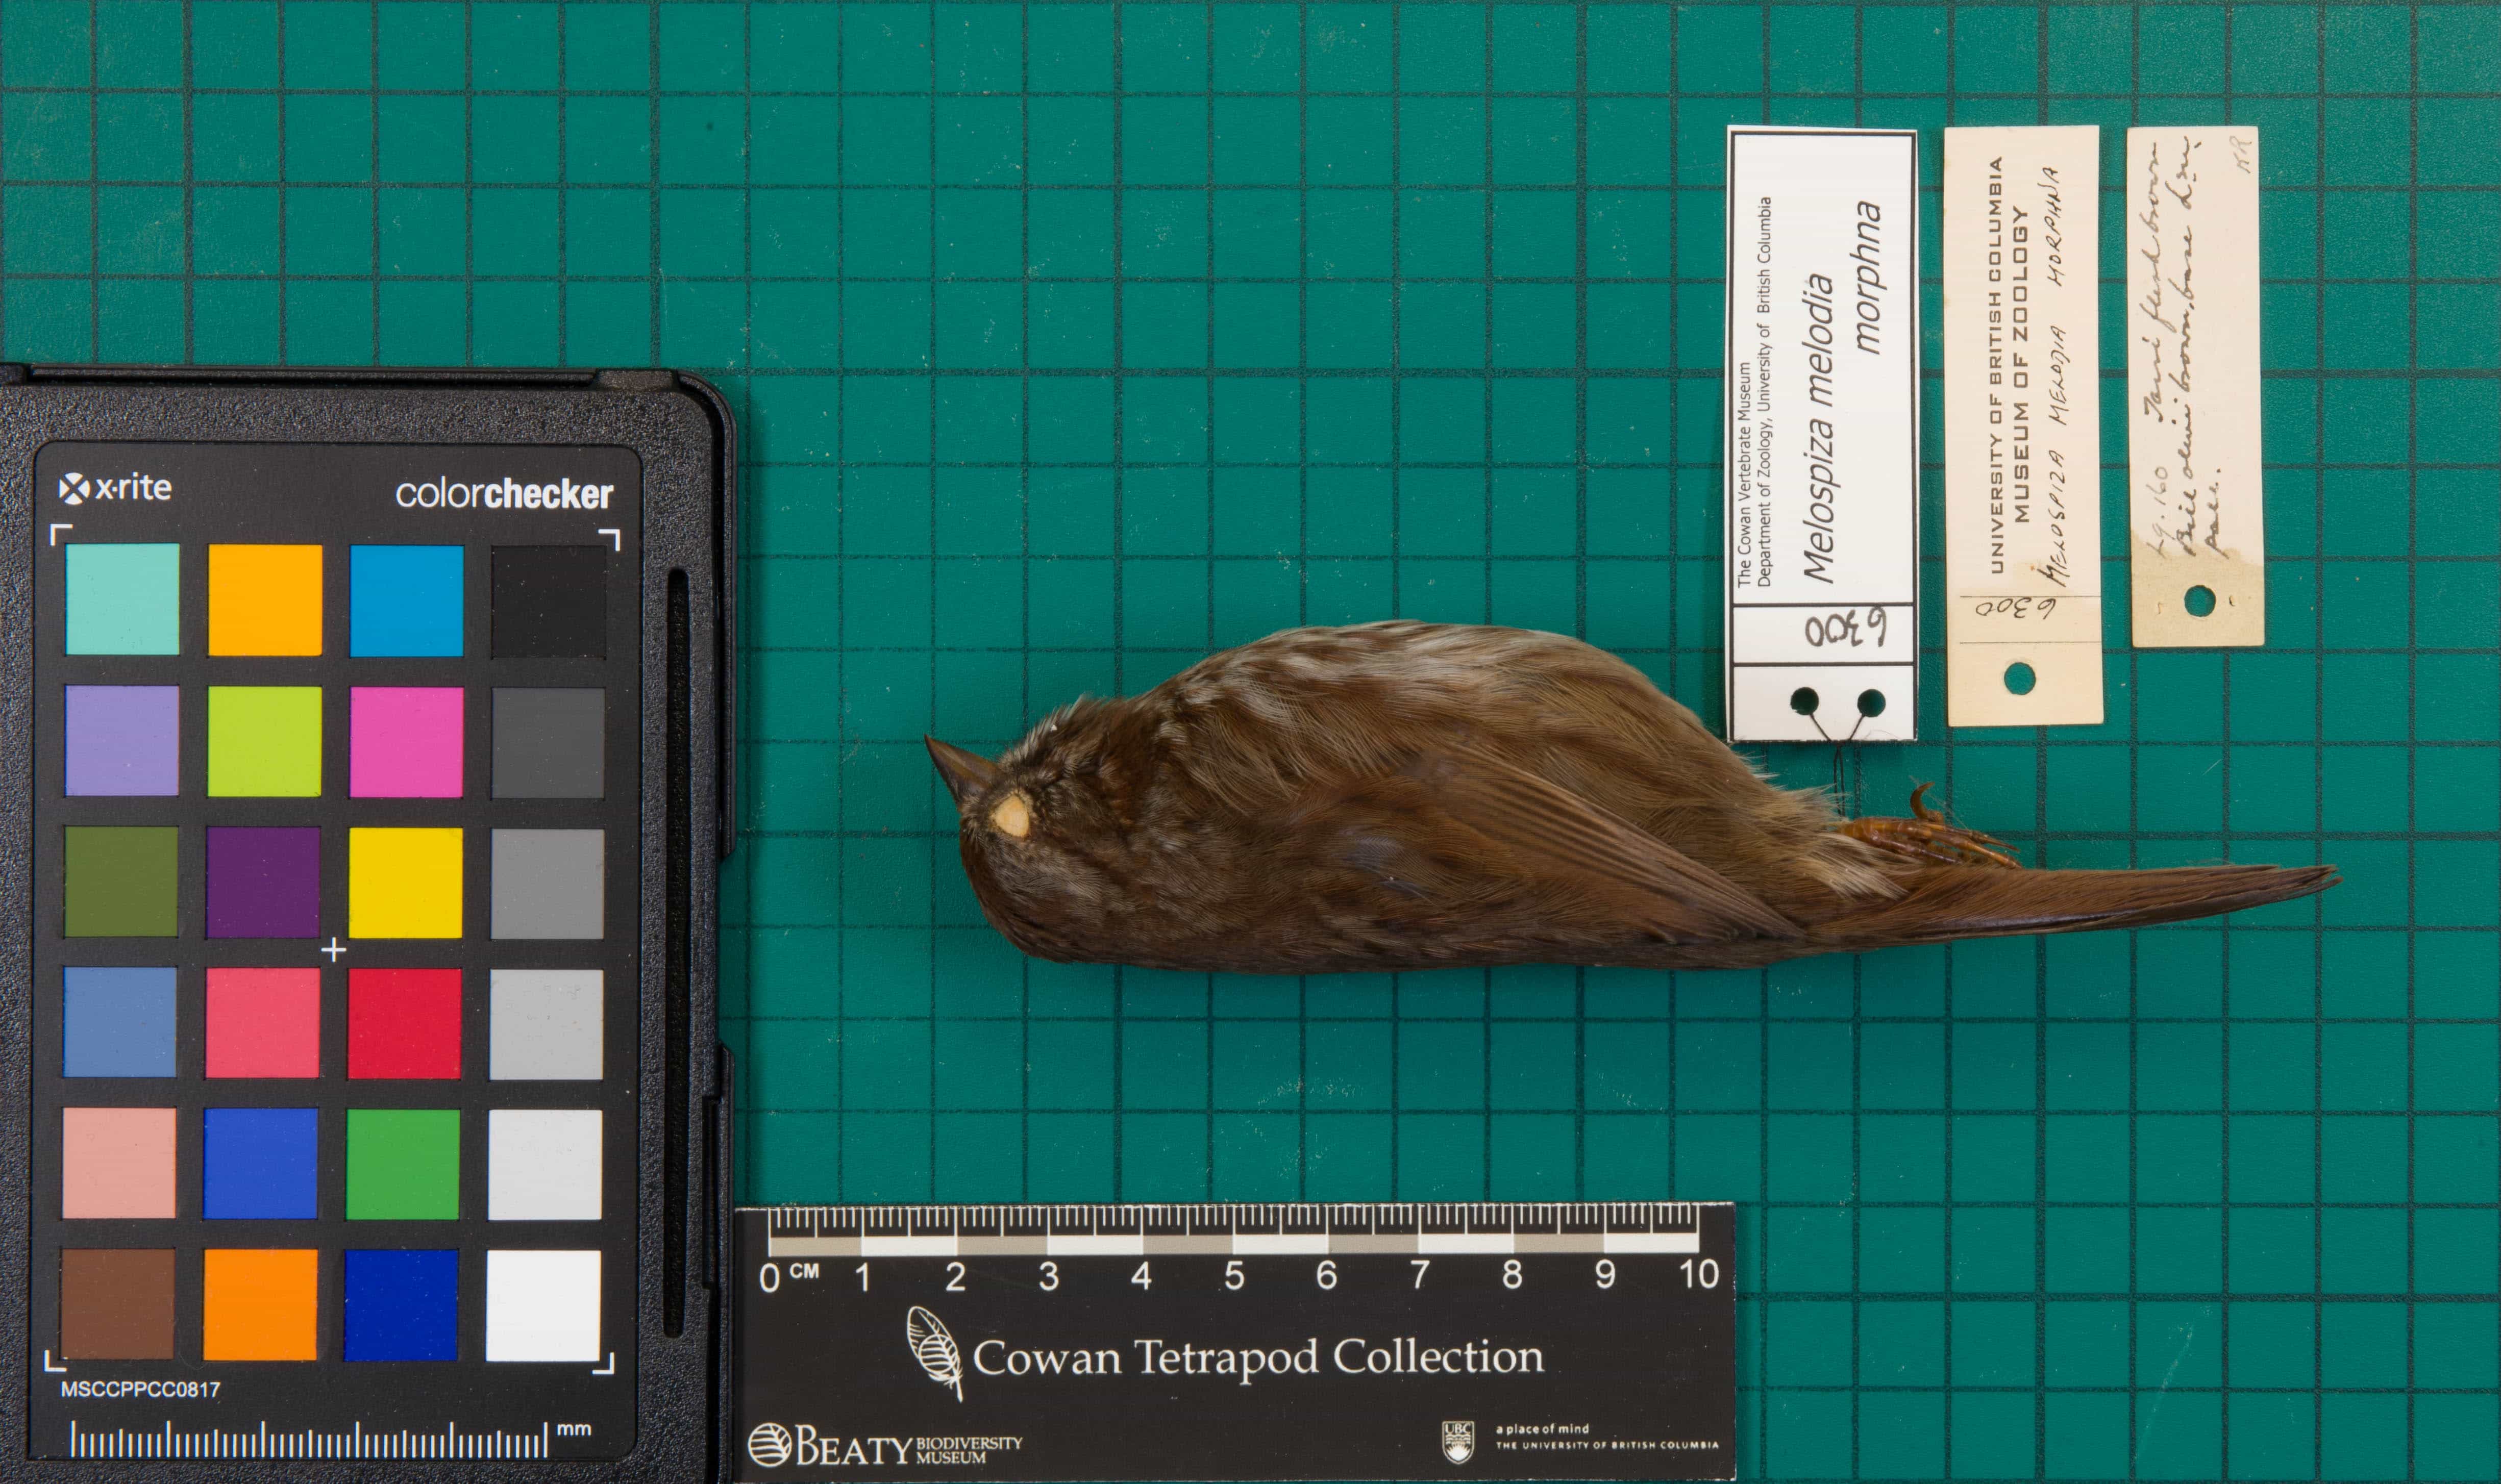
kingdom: Animalia
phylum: Chordata
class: Aves
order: Passeriformes
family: Passerellidae
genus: Melospiza
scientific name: Melospiza melodia
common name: Song Sparrow
